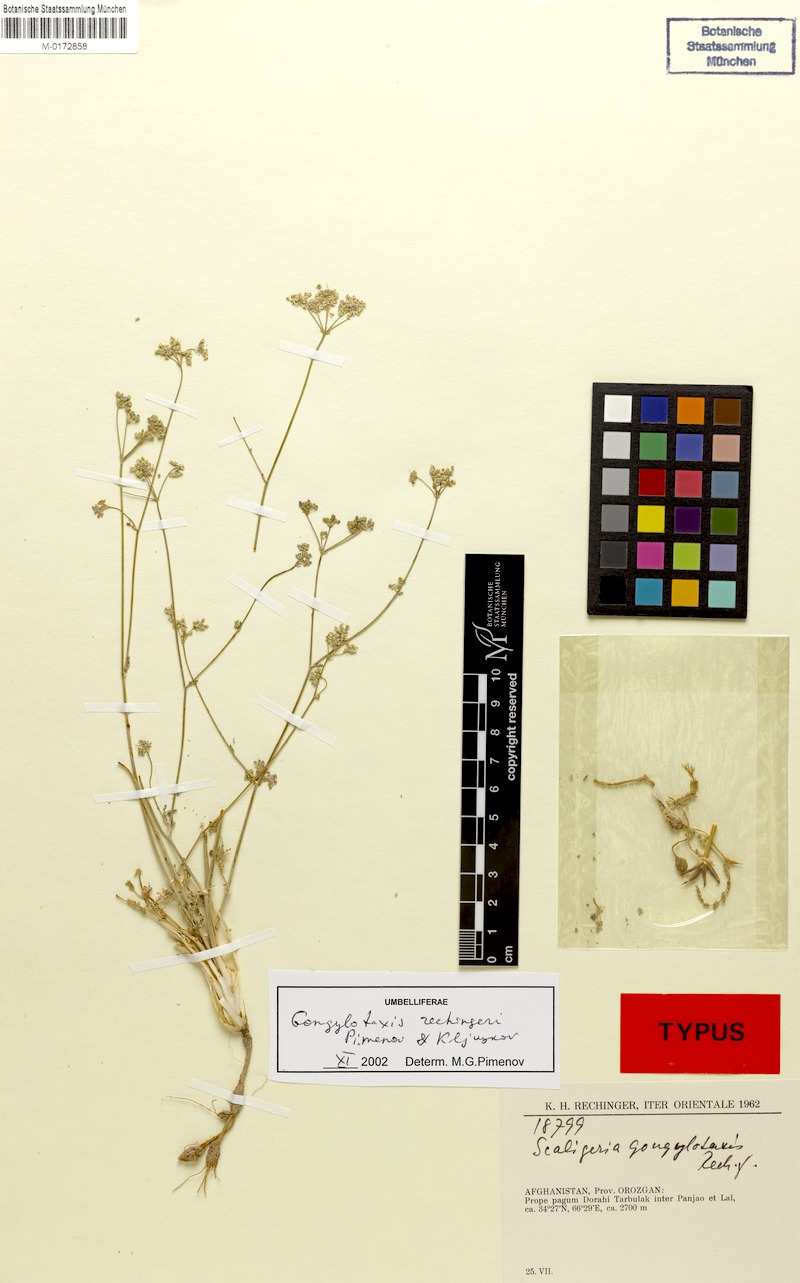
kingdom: Plantae
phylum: Tracheophyta
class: Magnoliopsida
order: Apiales
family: Apiaceae
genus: Gongylotaxis
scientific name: Gongylotaxis rechingeri
